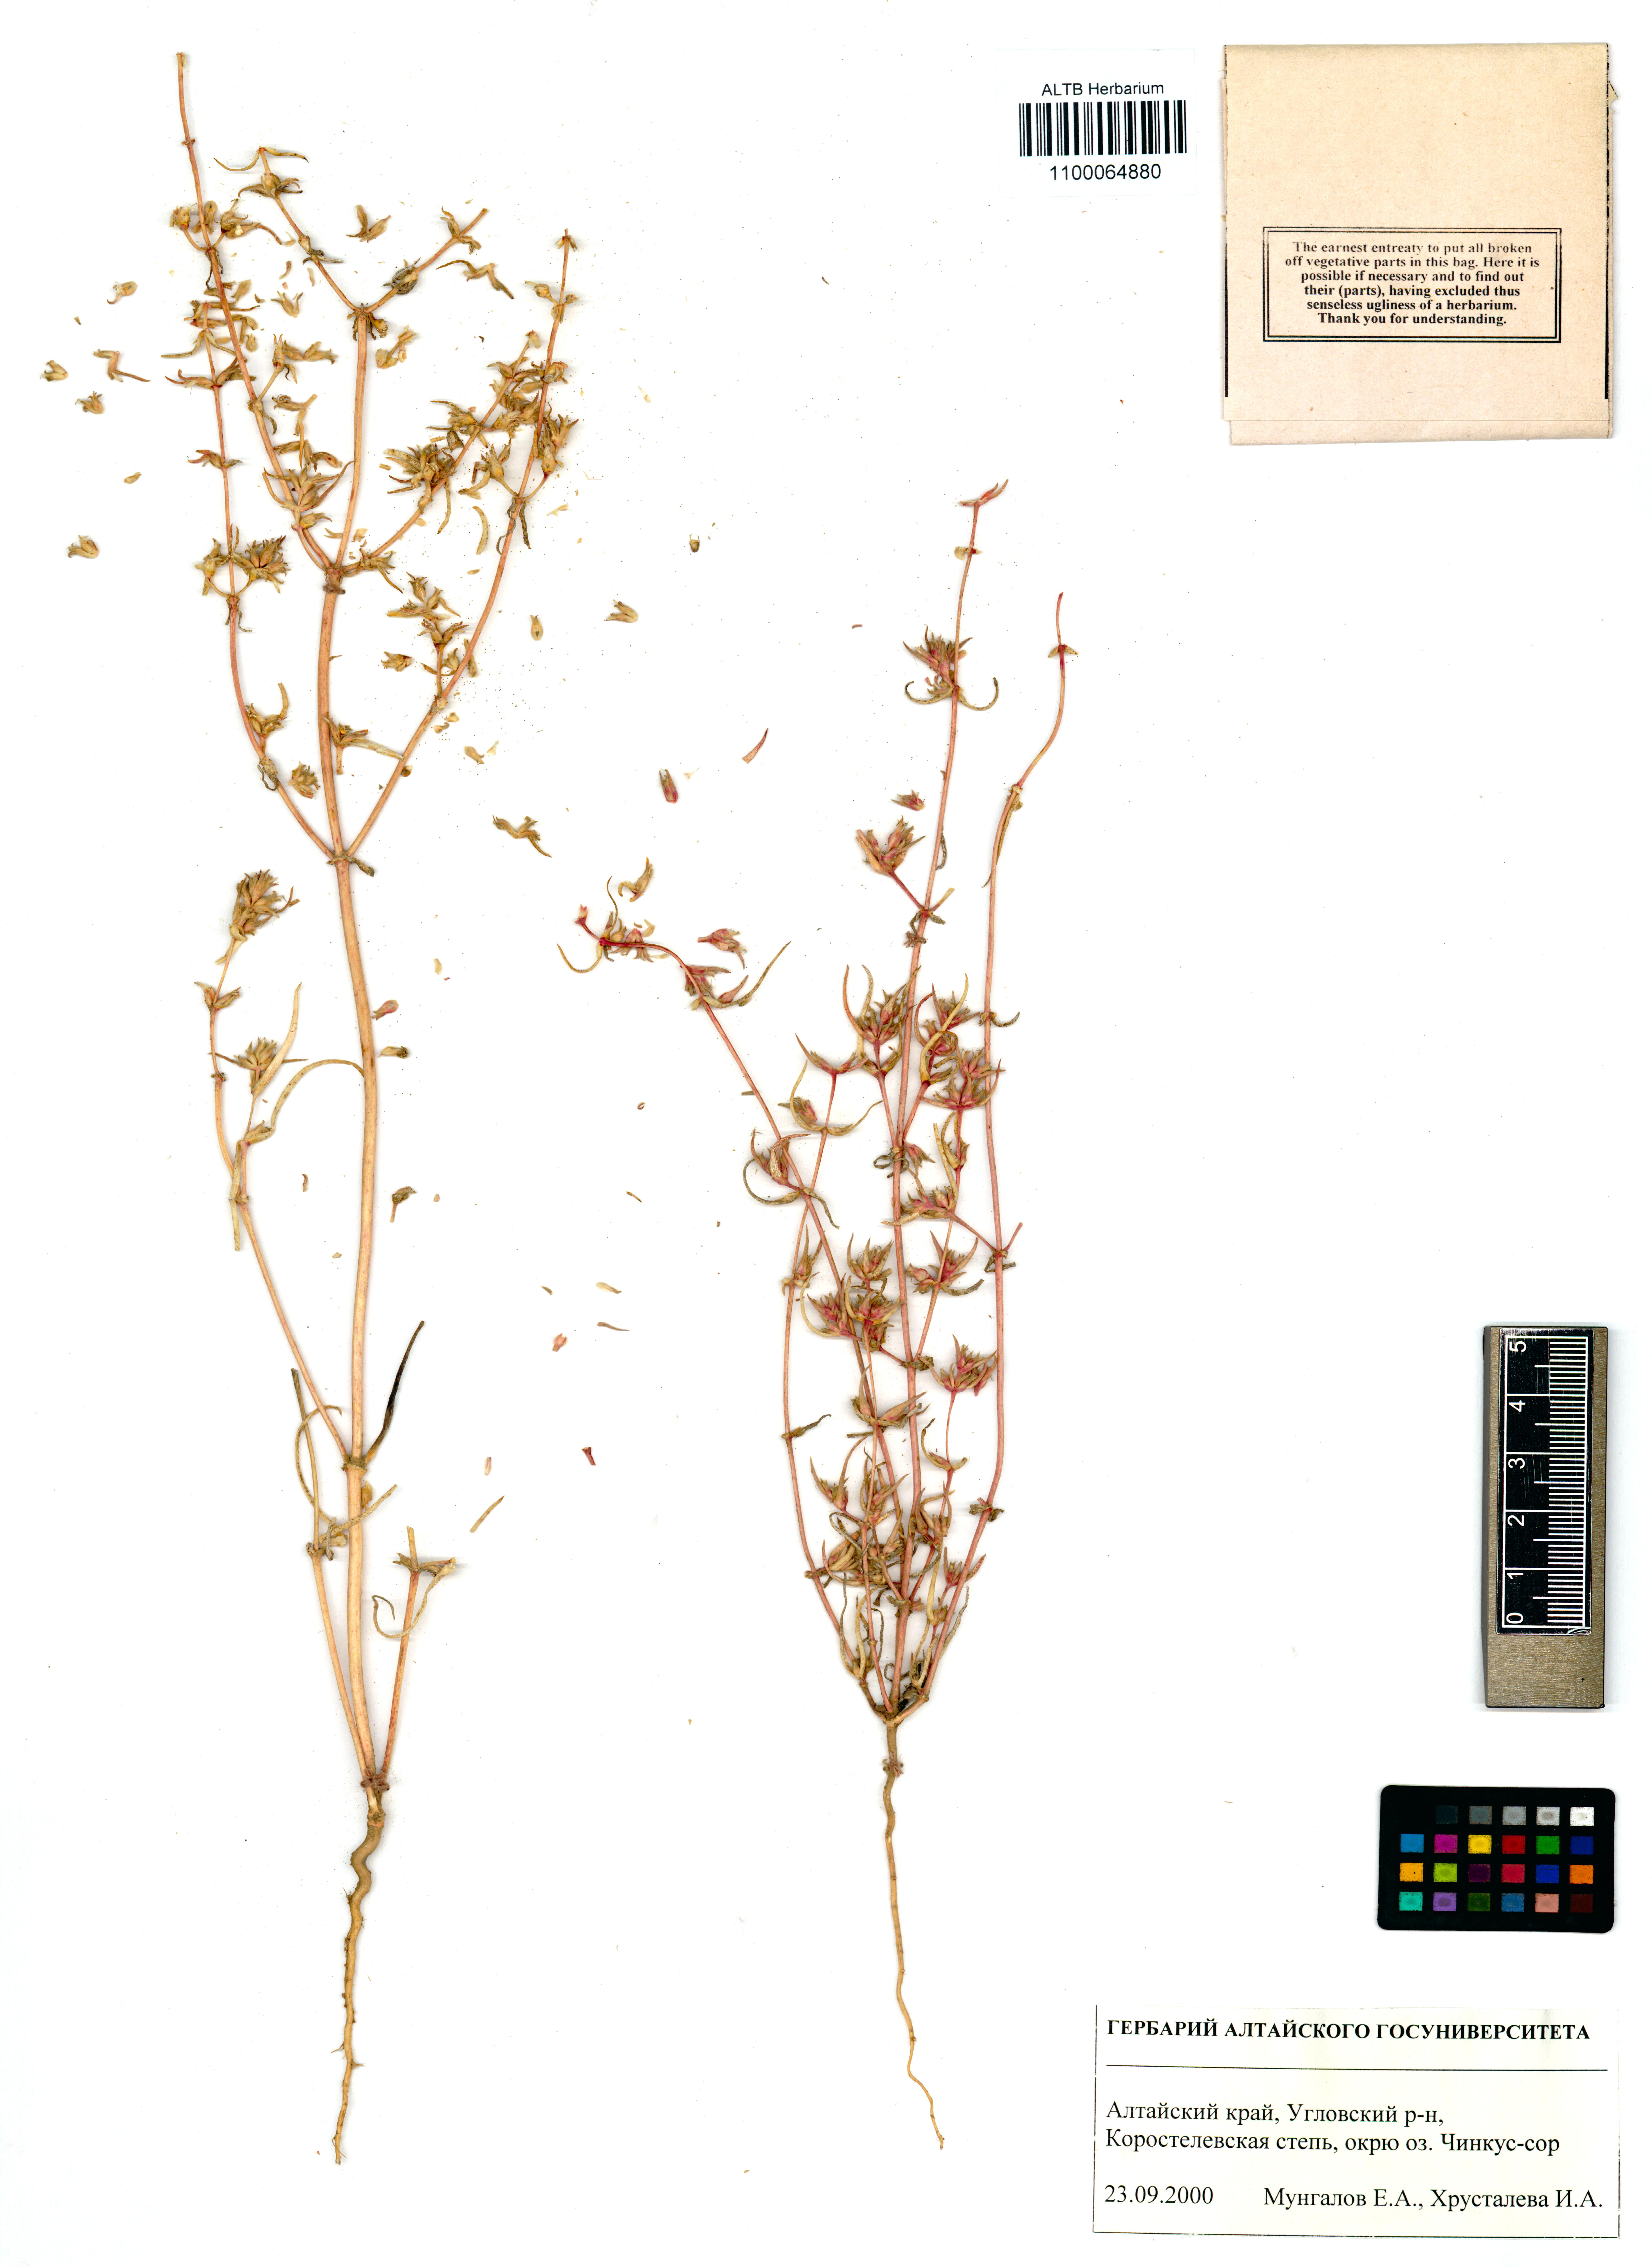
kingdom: Plantae
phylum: Tracheophyta
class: Magnoliopsida
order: Caryophyllales
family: Amaranthaceae
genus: Petrosimonia
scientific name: Petrosimonia sibirica
